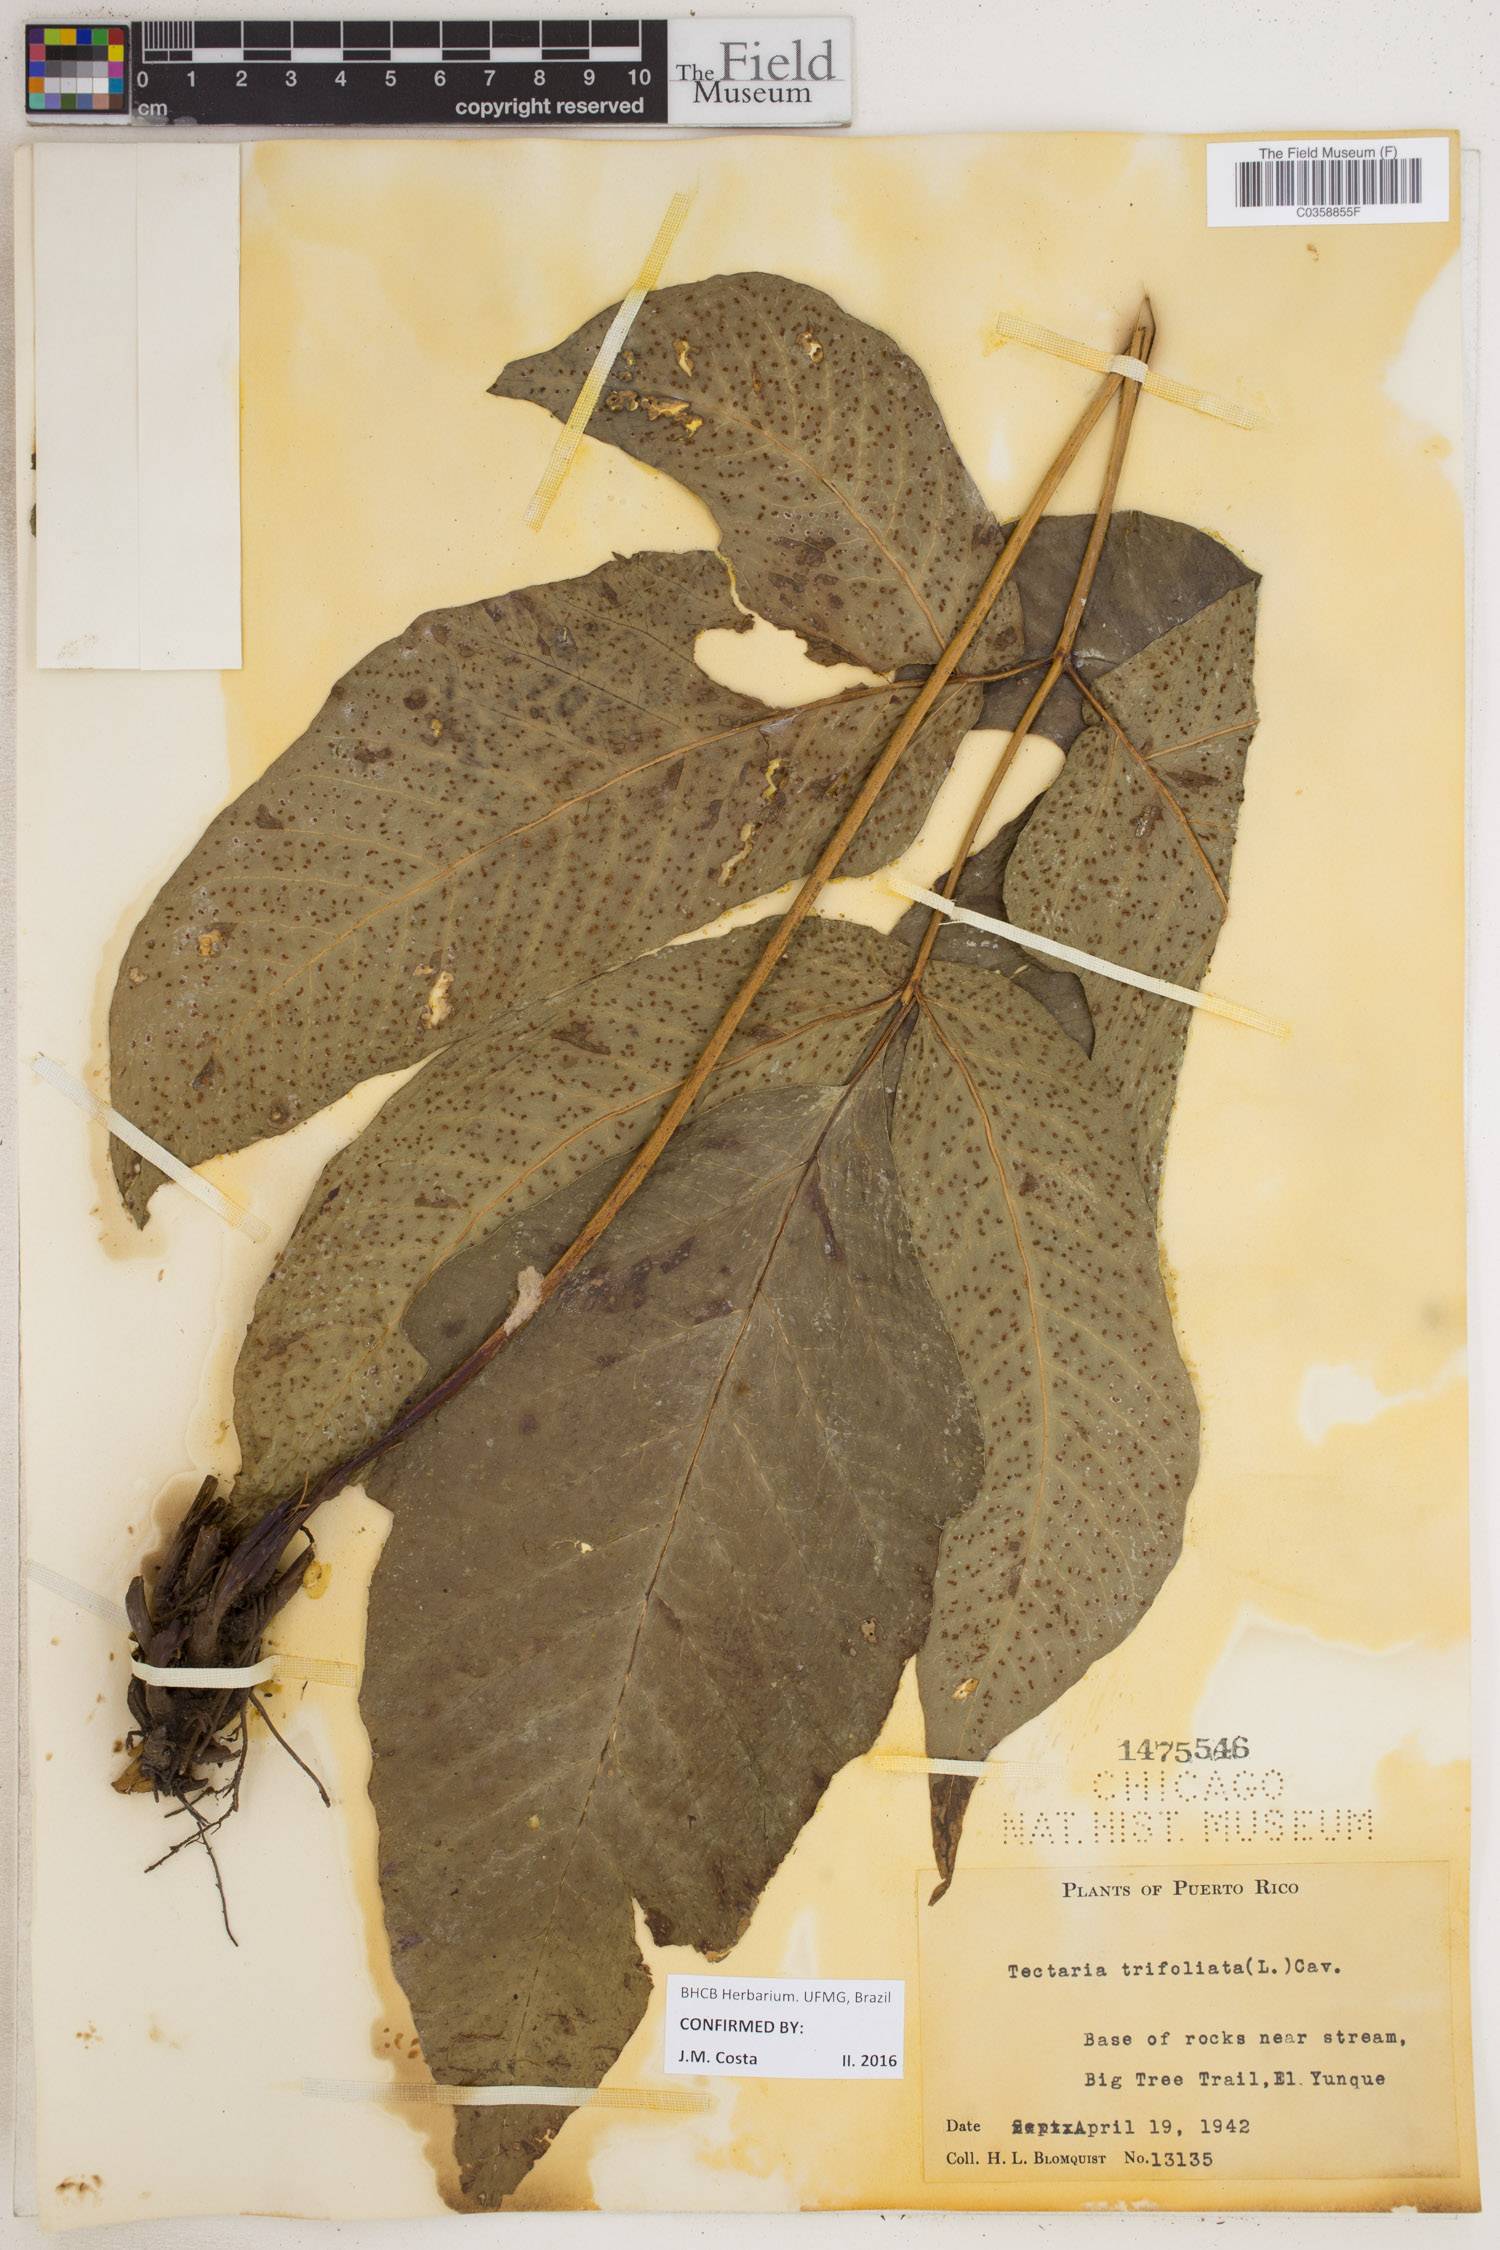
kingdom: Plantae
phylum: Tracheophyta
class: Polypodiopsida
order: Polypodiales
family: Tectariaceae
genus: Tectaria
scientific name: Tectaria trifoliata
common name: Threeleaf halberd fern
